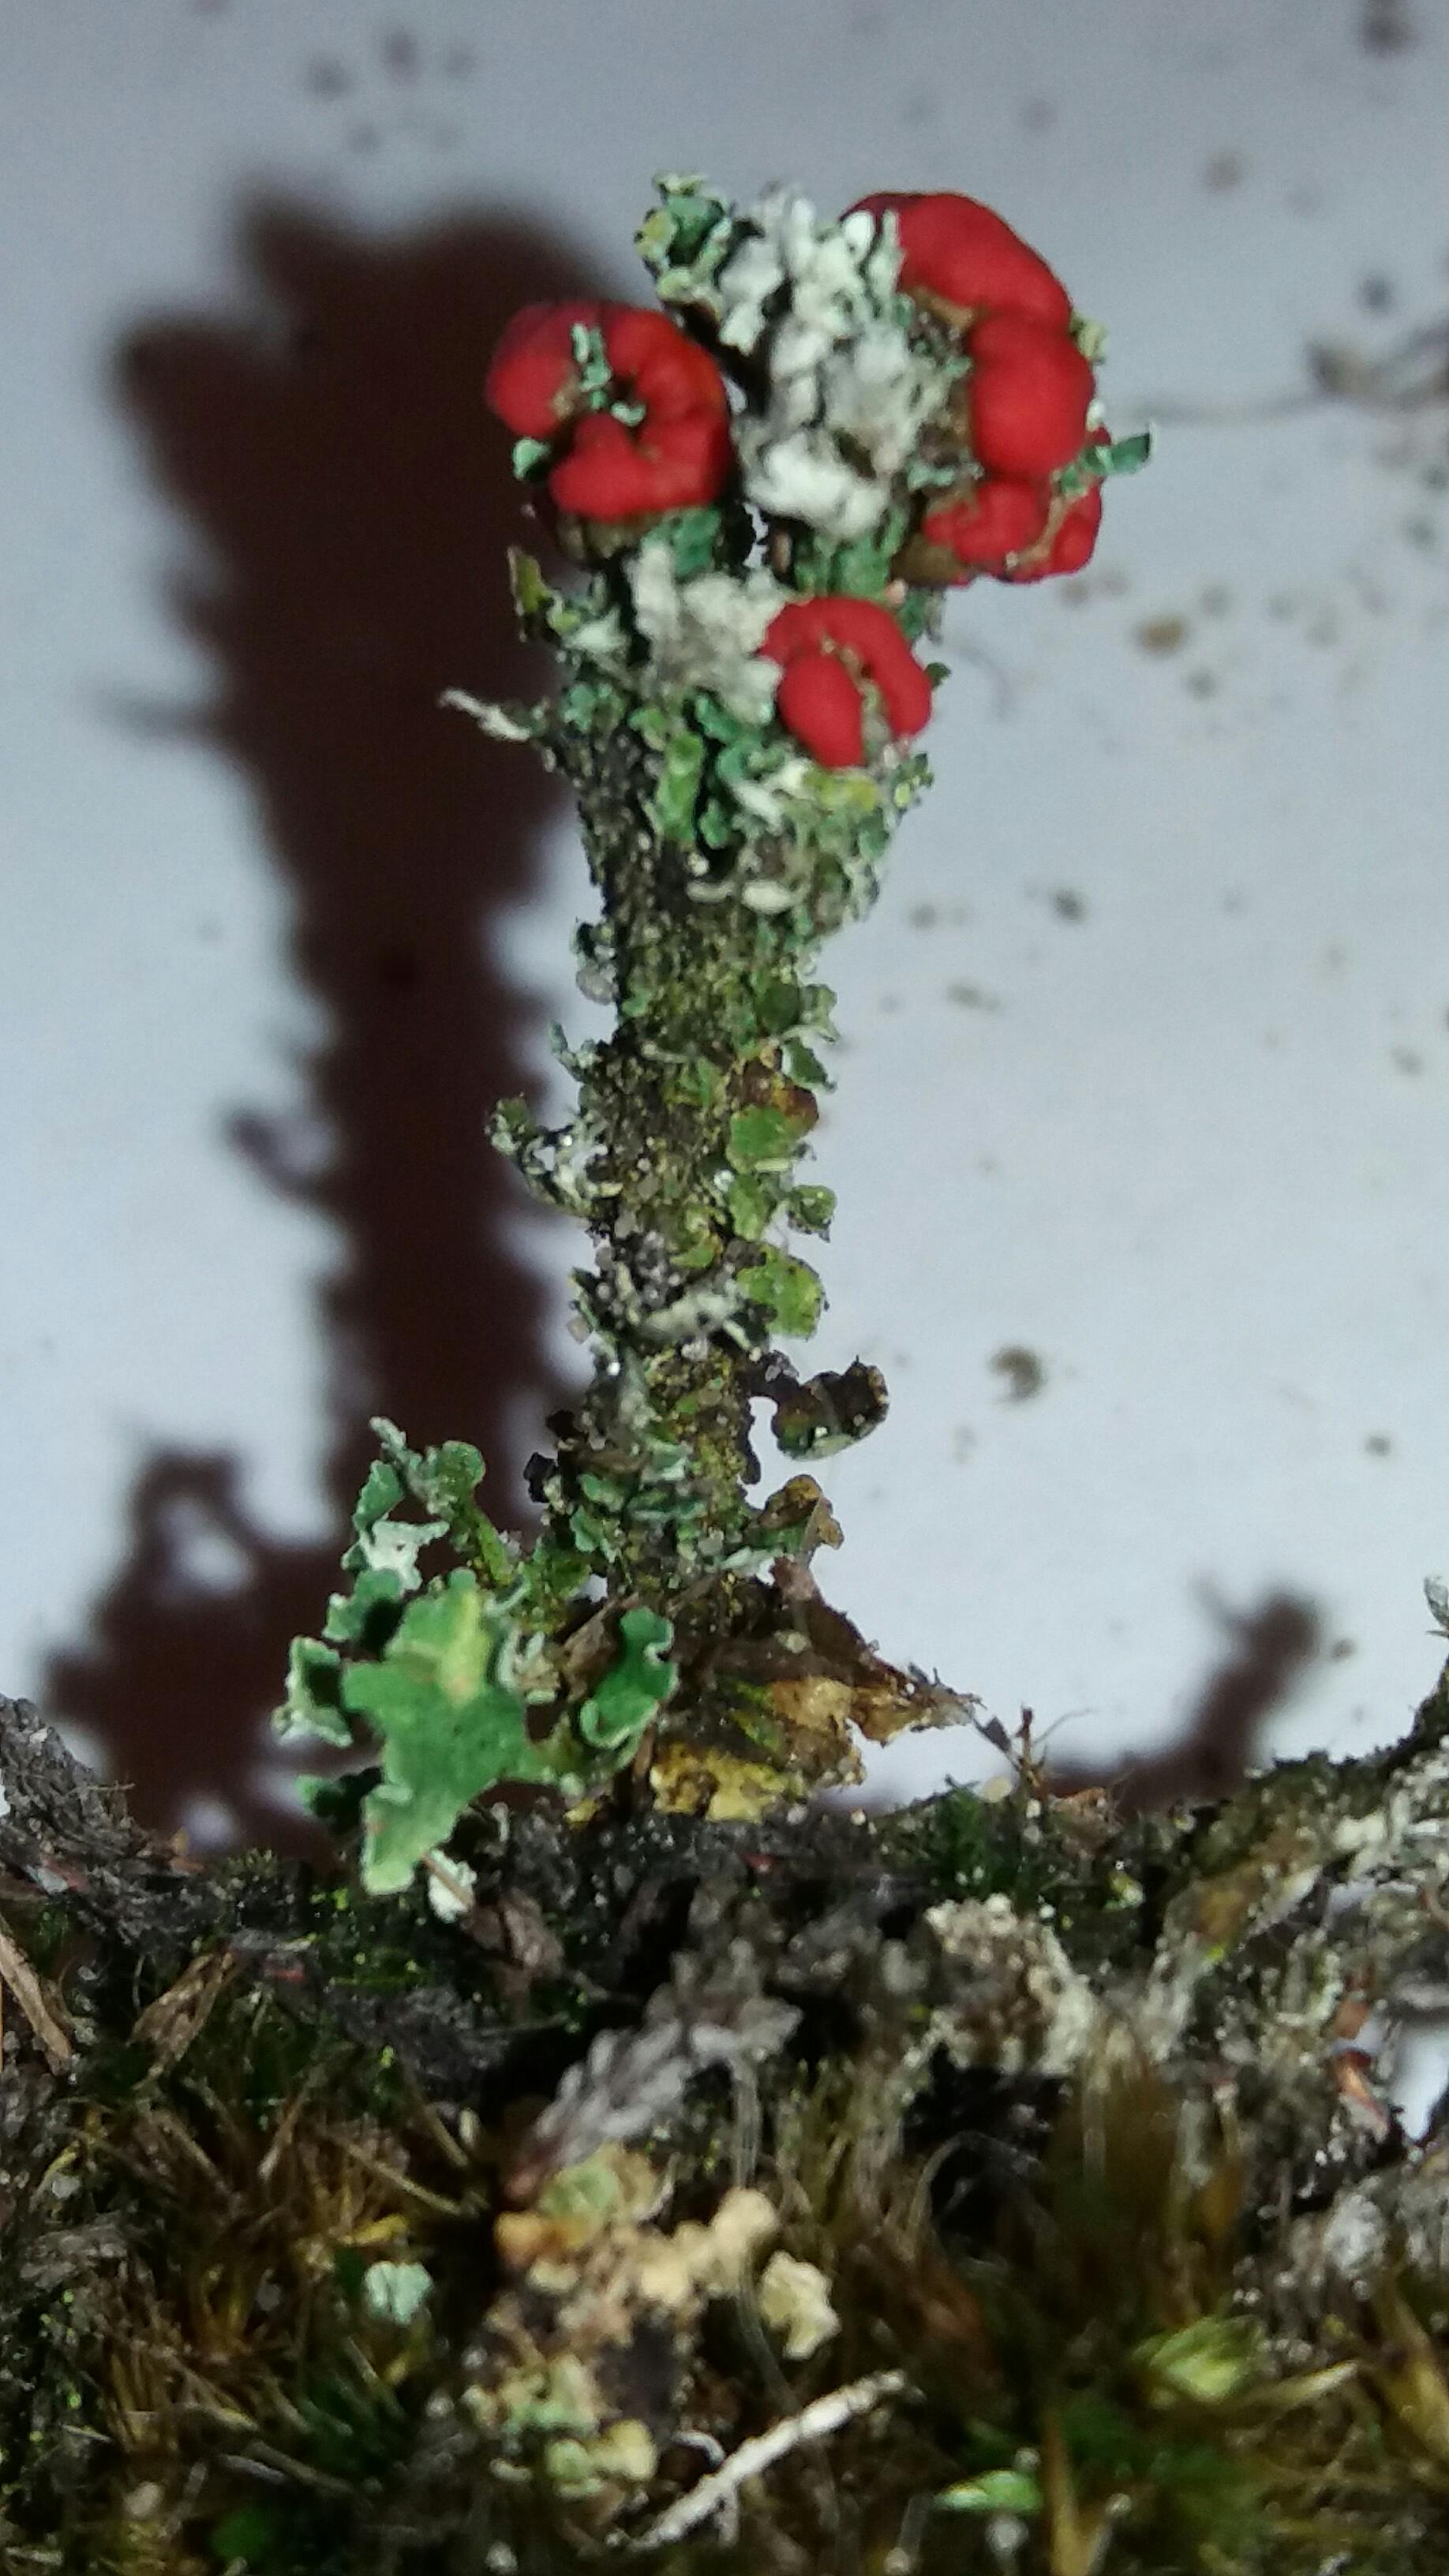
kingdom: Fungi
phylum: Ascomycota
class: Lecanoromycetes
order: Lecanorales
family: Cladoniaceae
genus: Cladonia
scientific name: Cladonia diversa
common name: rød bægerlav
